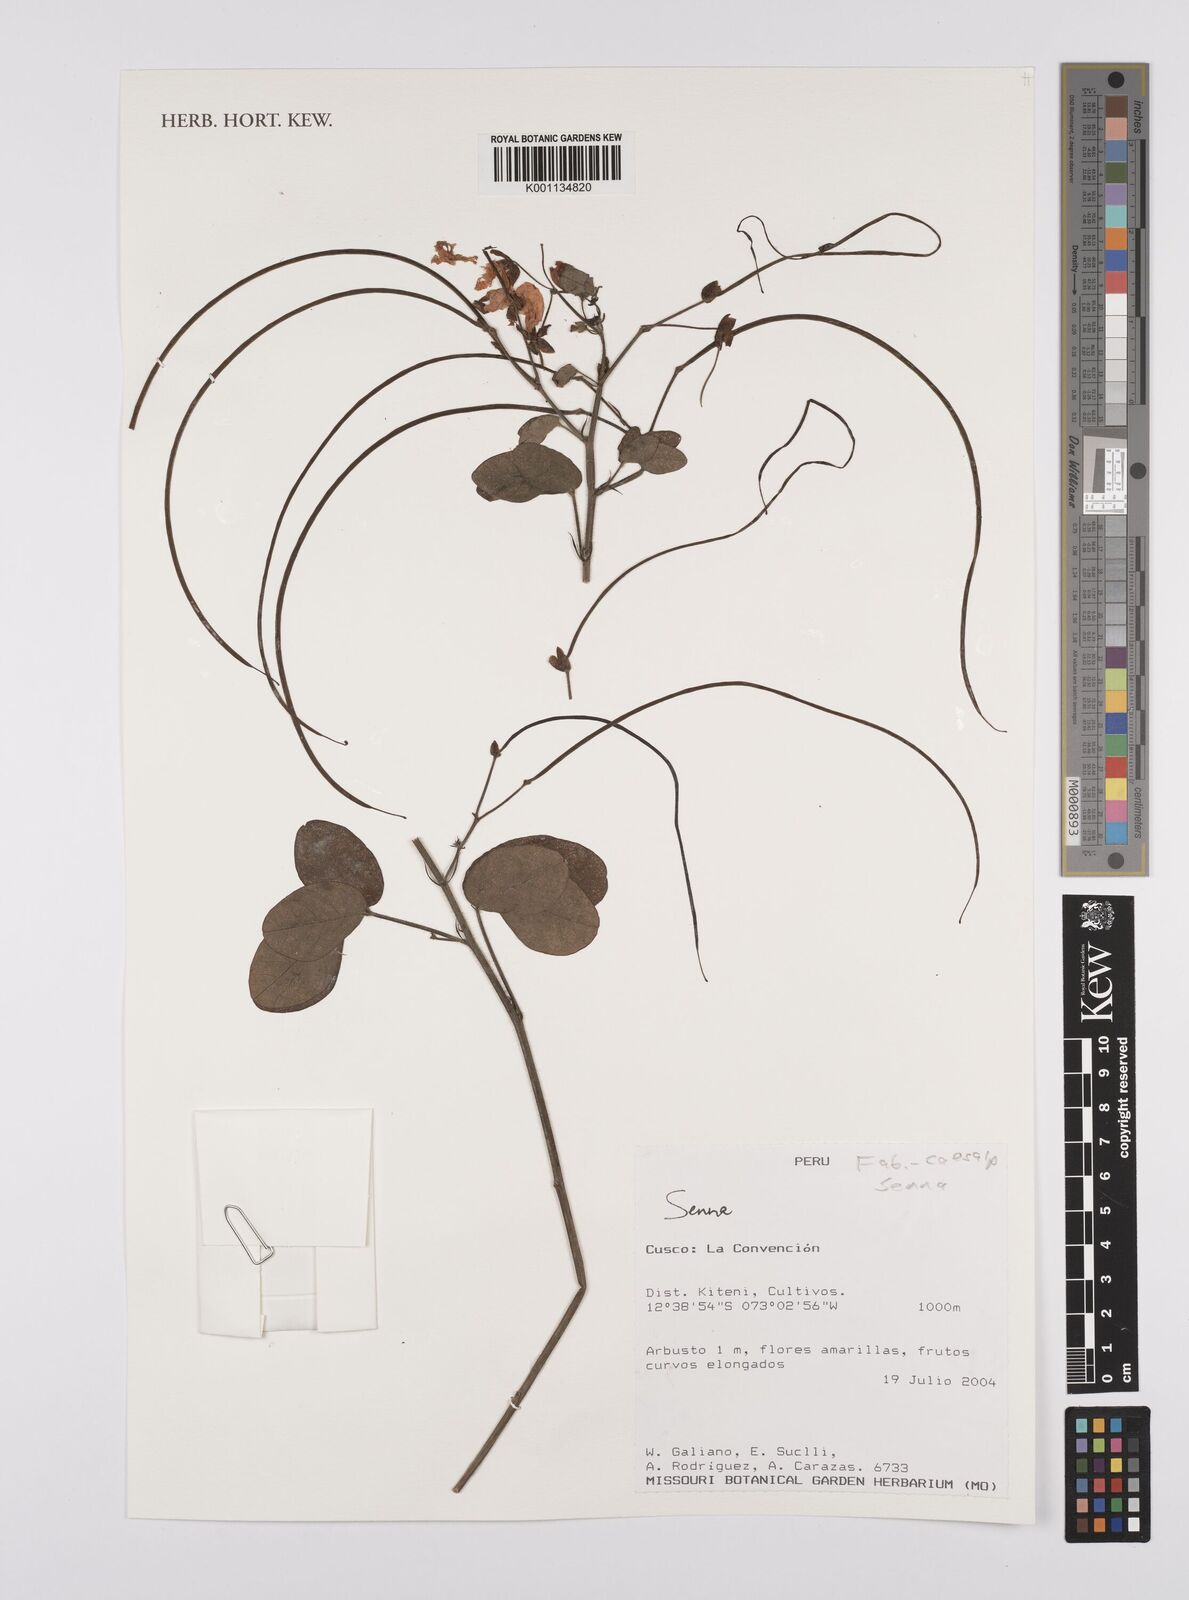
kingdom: Plantae
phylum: Tracheophyta
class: Magnoliopsida
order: Fabales
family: Fabaceae
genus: Senna
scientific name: Senna
